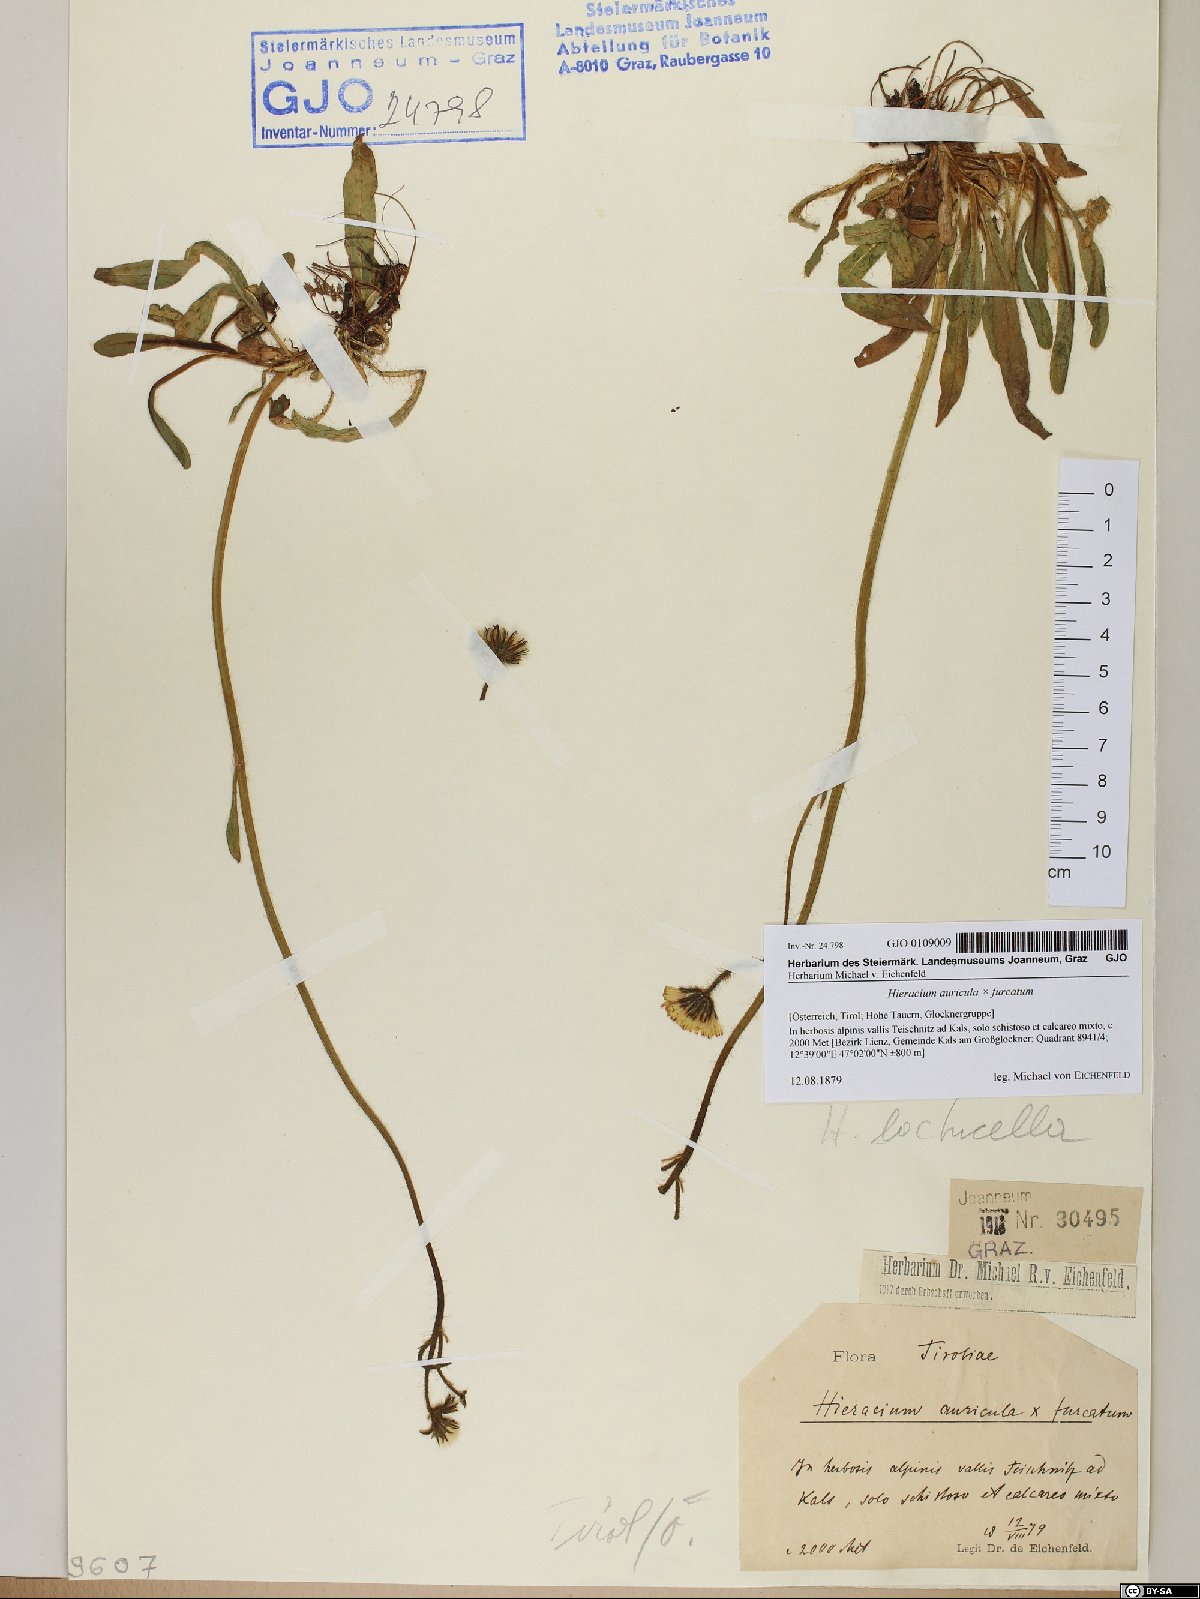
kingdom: Plantae
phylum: Tracheophyta
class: Magnoliopsida
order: Asterales
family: Asteraceae
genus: Hieracium
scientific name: Hieracium auricula
